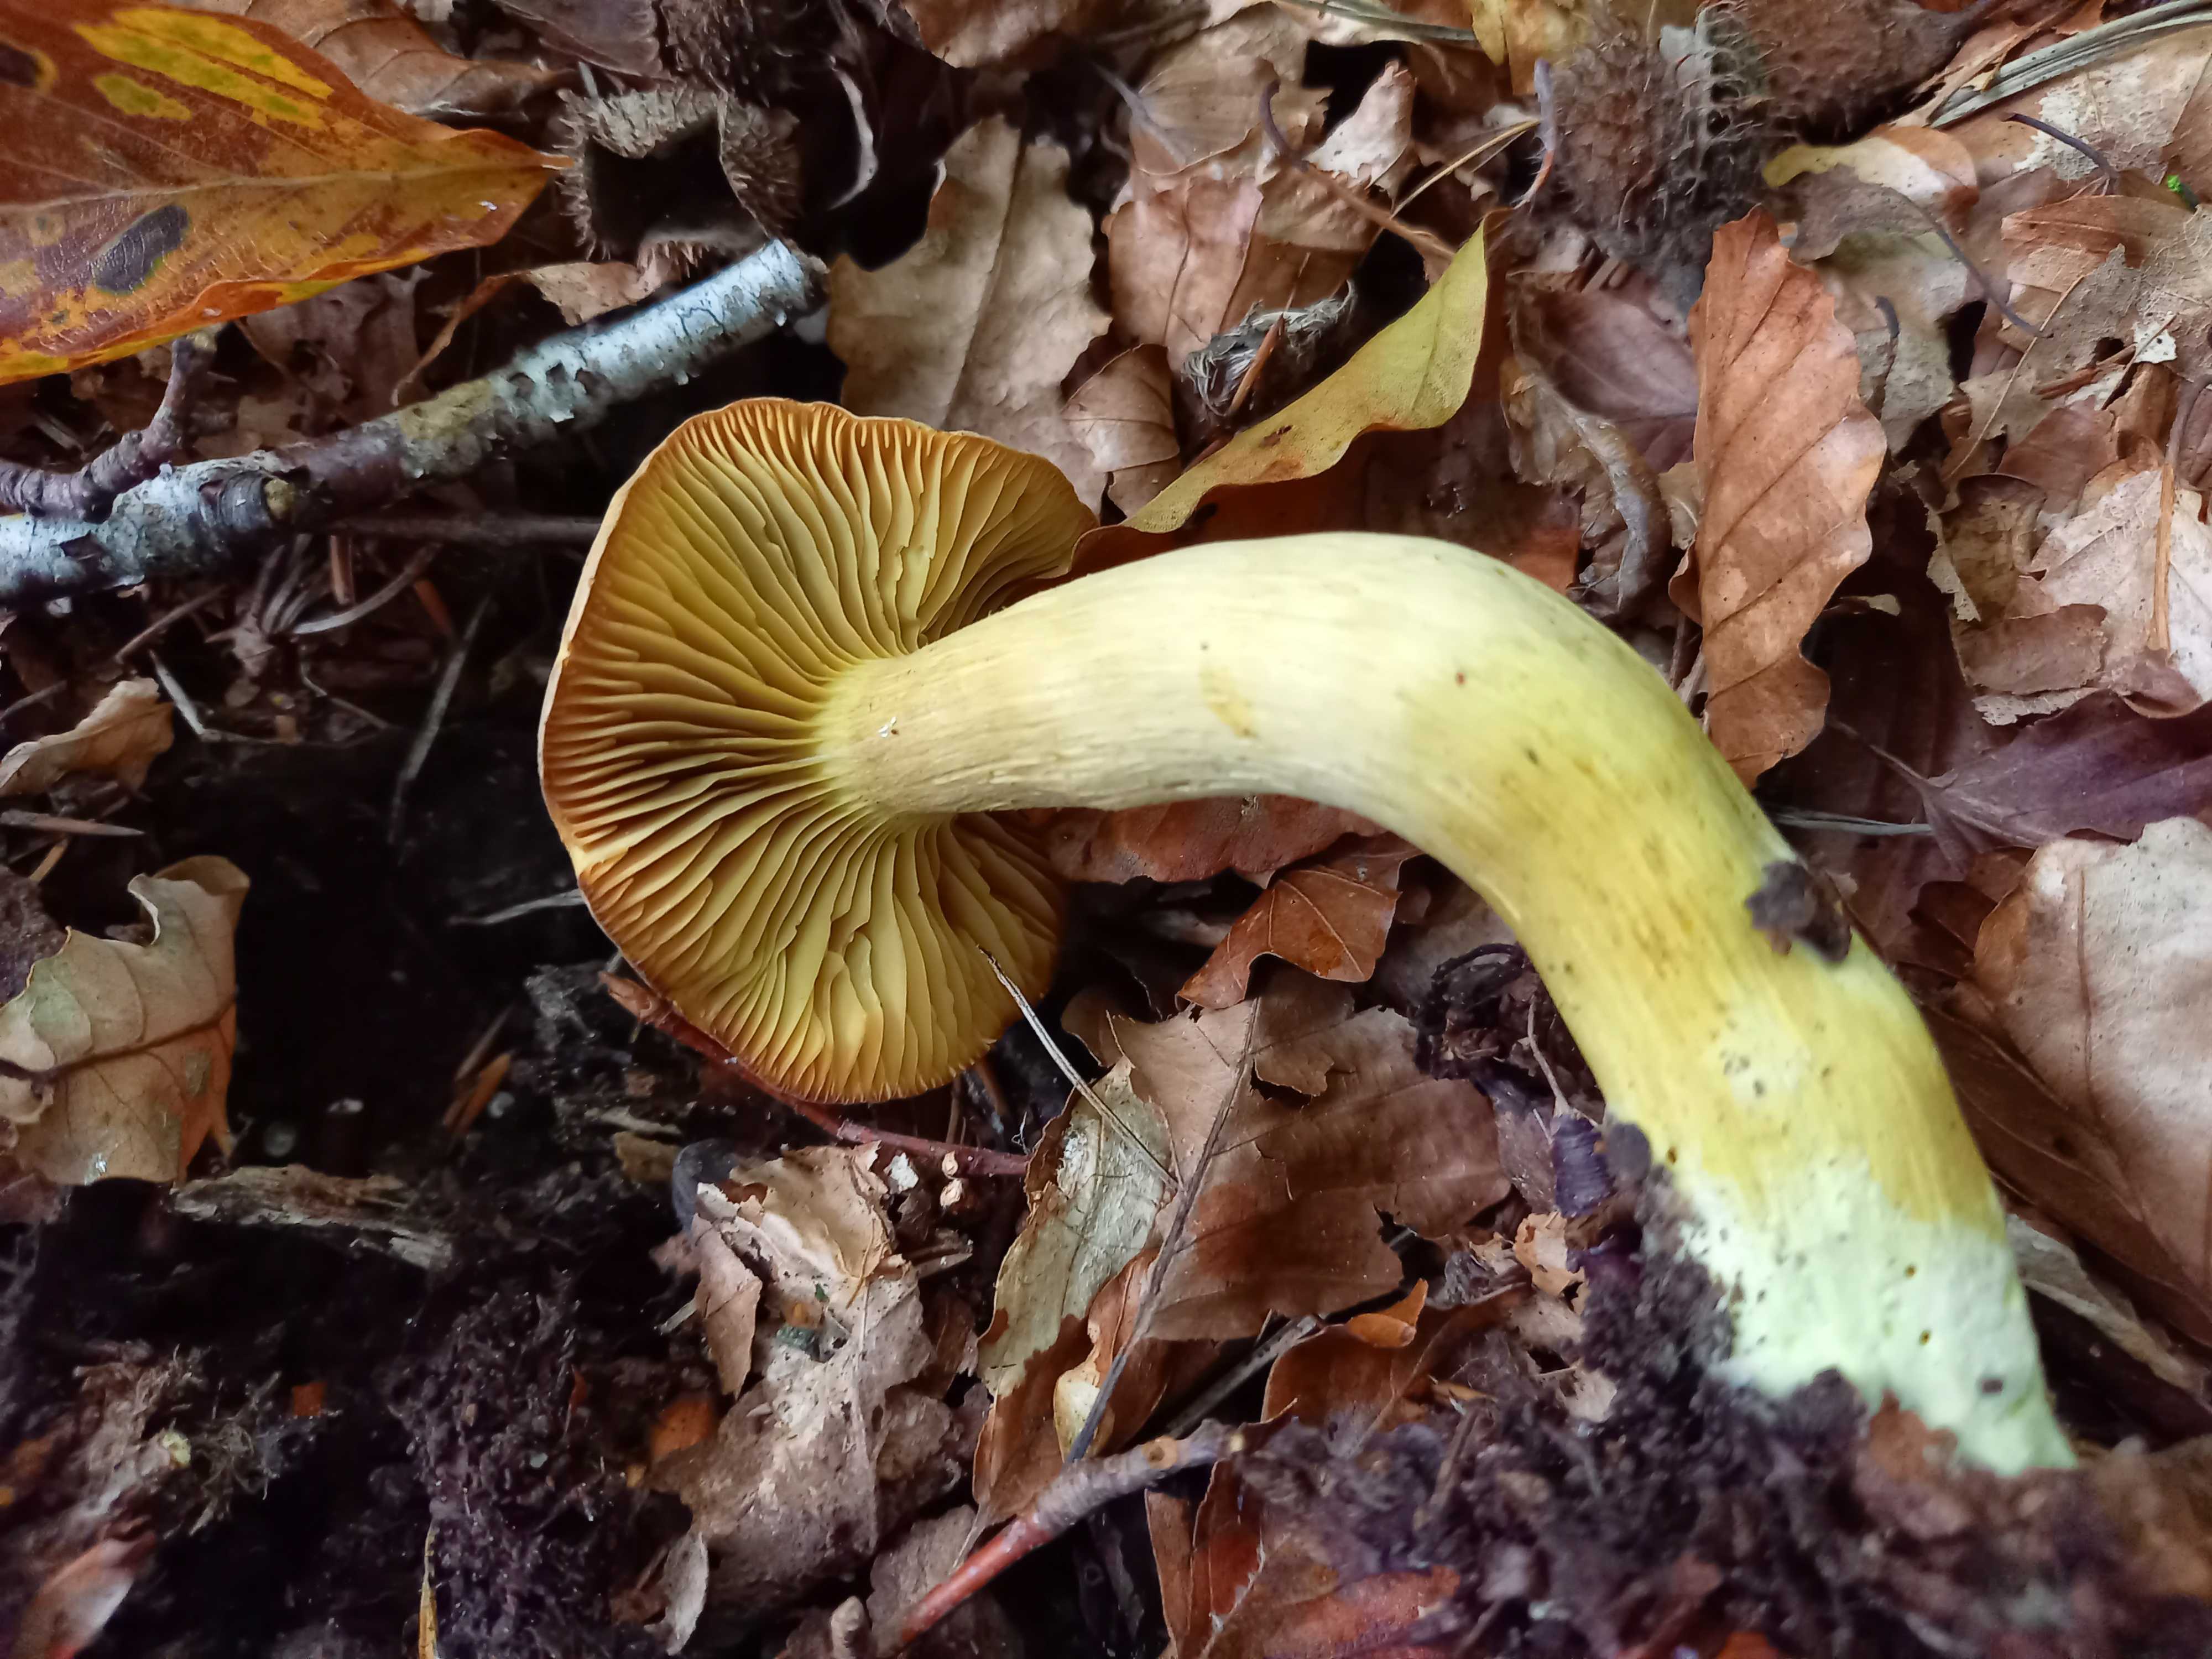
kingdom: Fungi
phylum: Basidiomycota
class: Agaricomycetes
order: Agaricales
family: Tricholomataceae
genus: Tricholoma
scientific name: Tricholoma sulphureum
